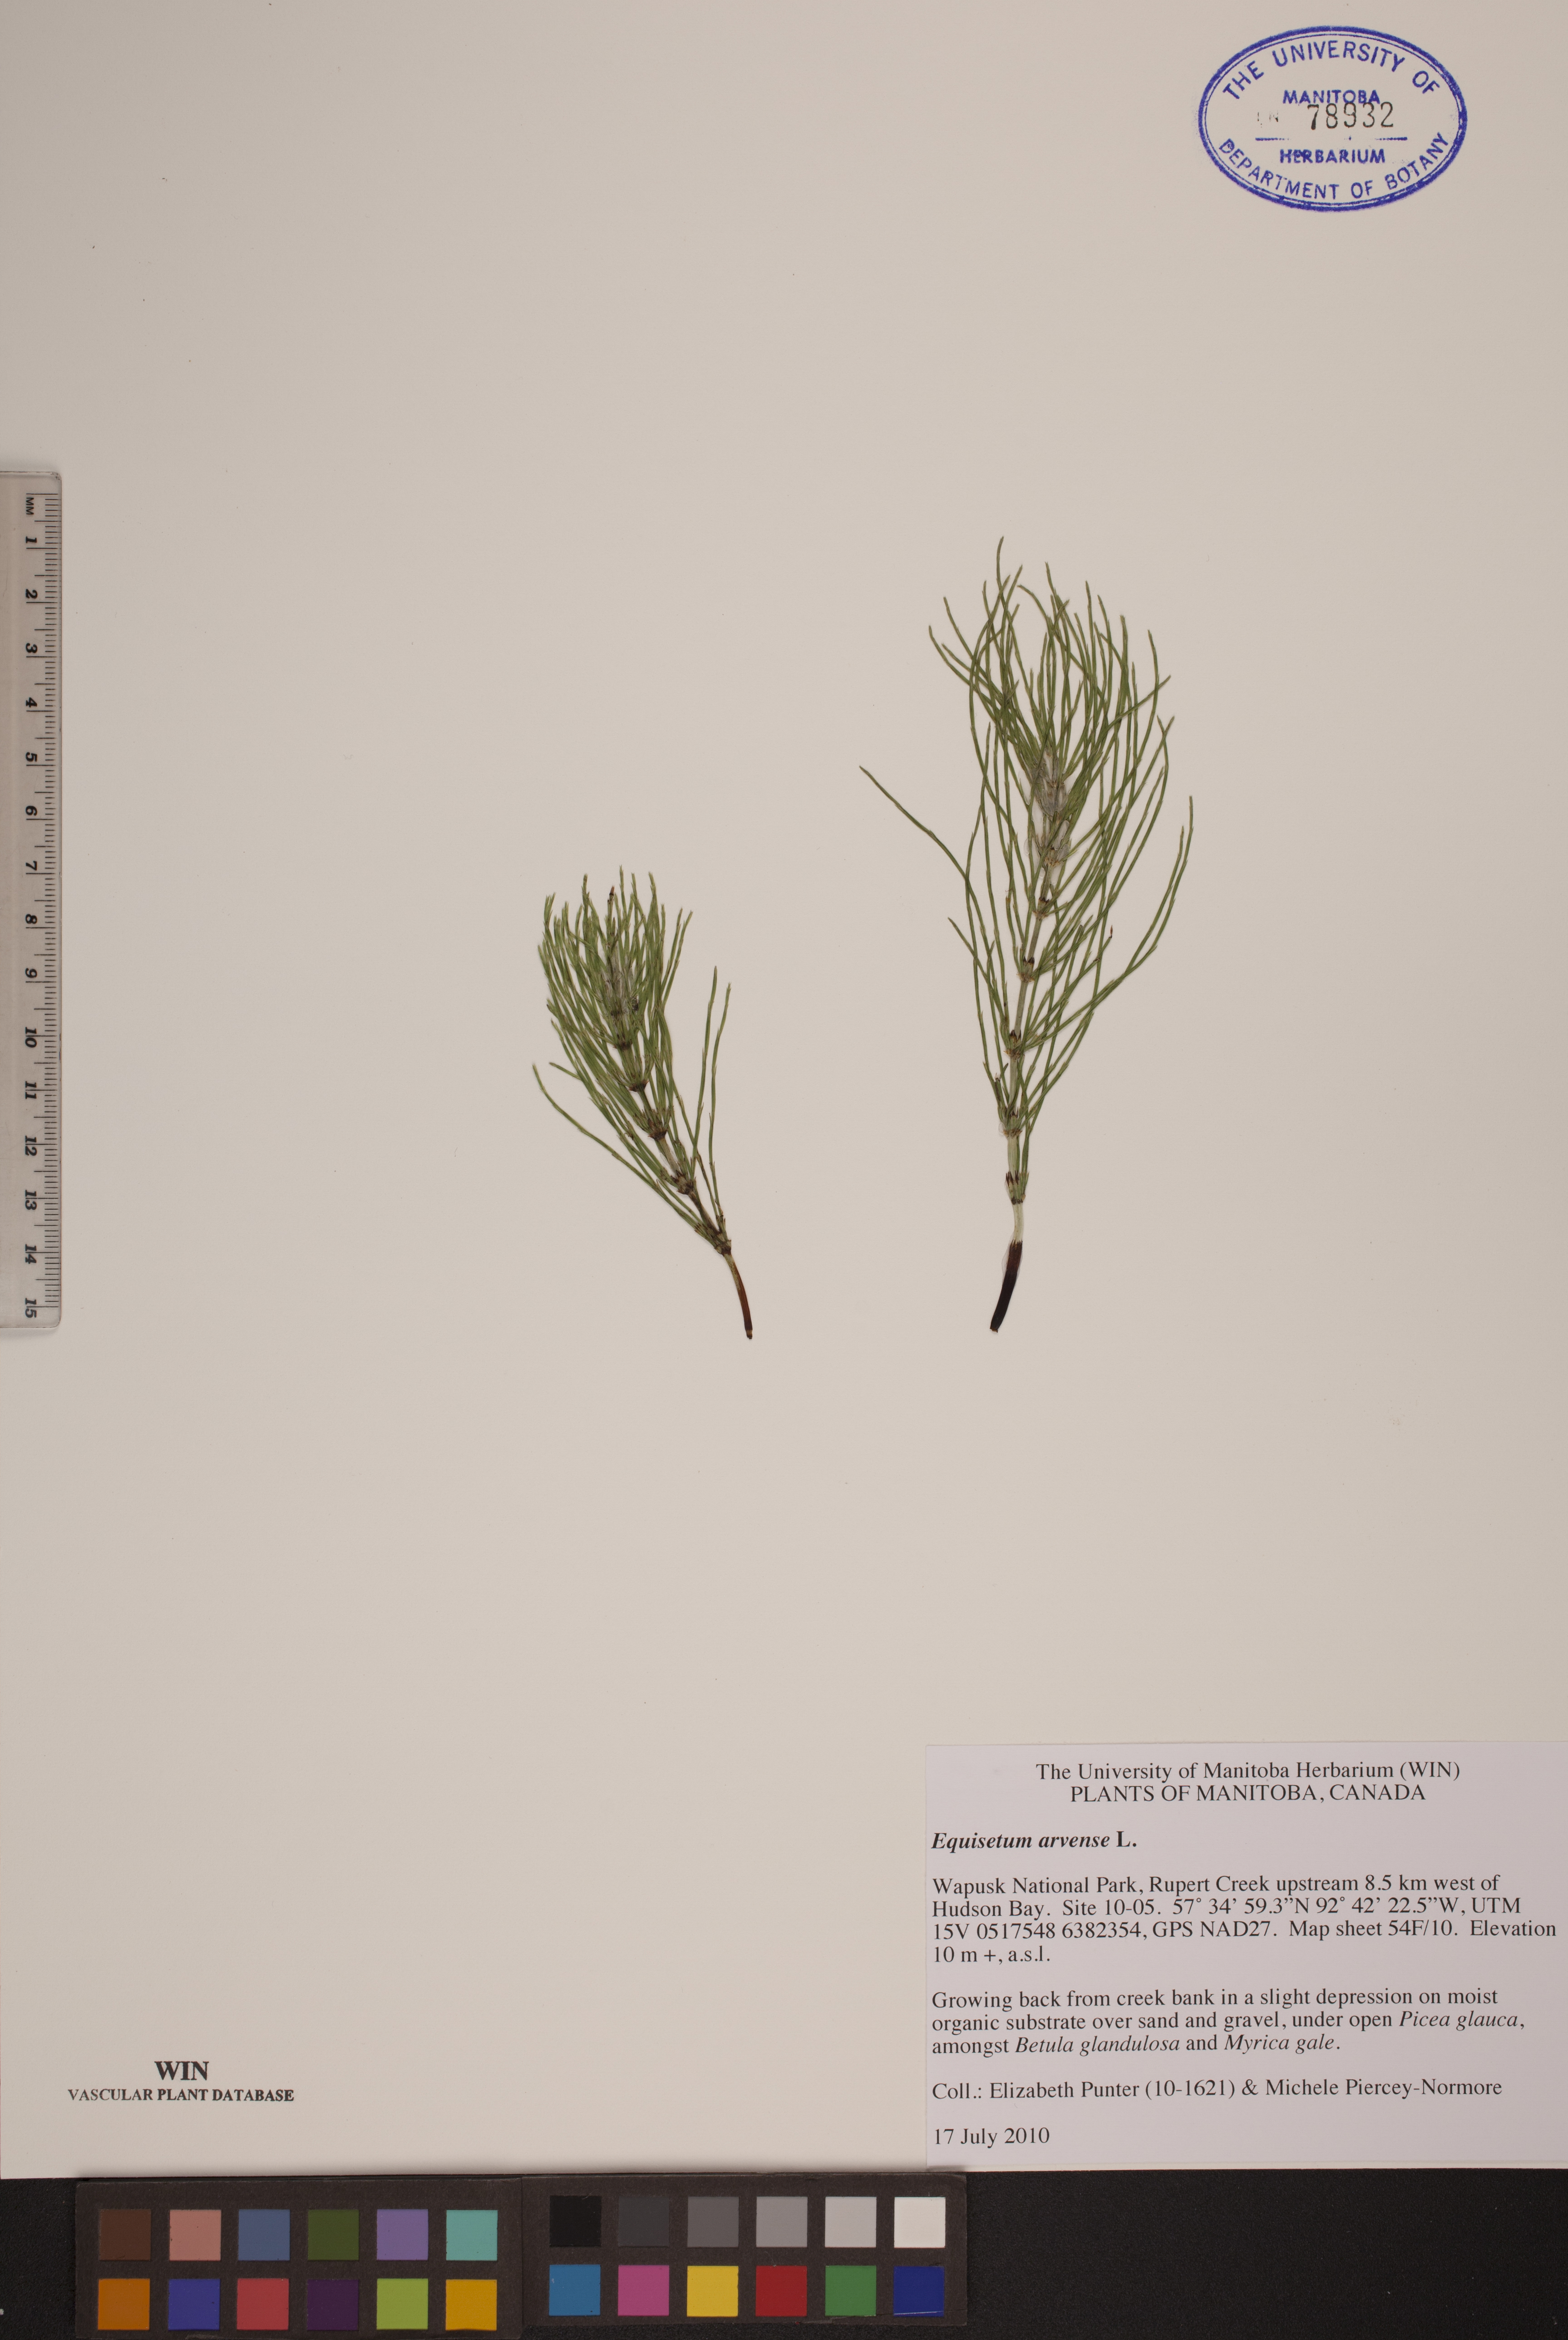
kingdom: Plantae
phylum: Tracheophyta
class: Polypodiopsida
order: Equisetales
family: Equisetaceae
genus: Equisetum
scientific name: Equisetum arvense
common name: Field horsetail
